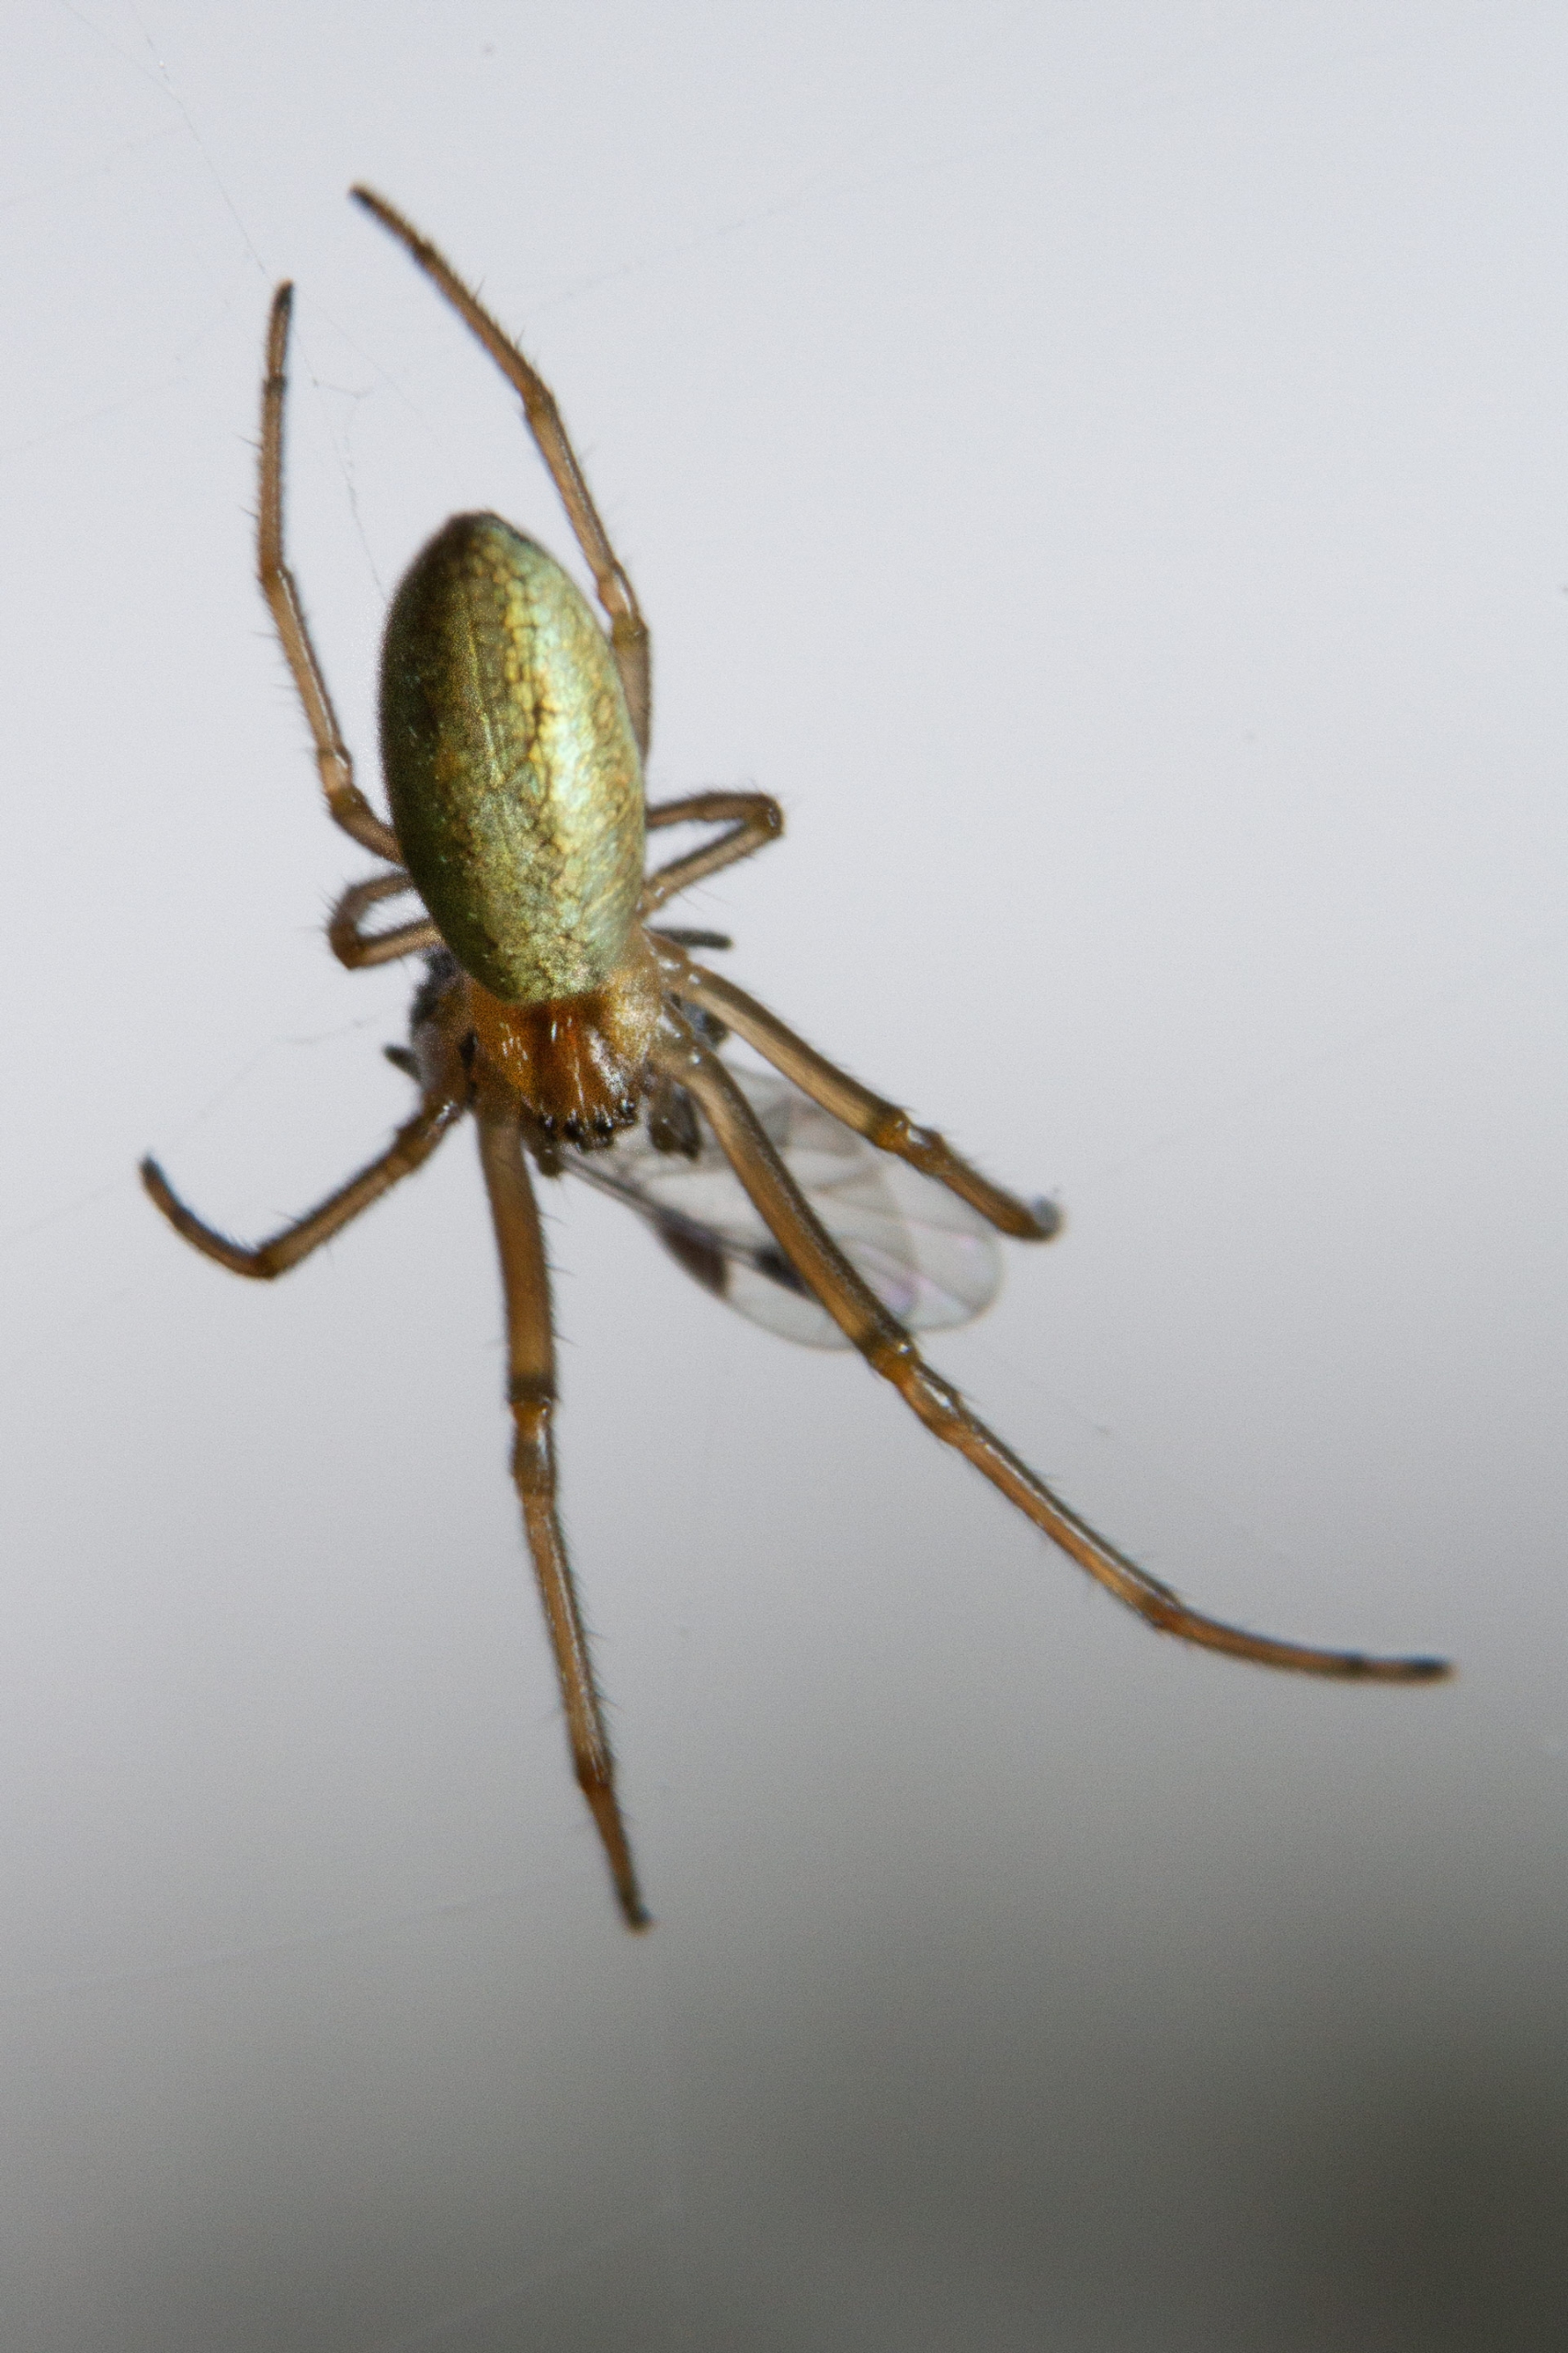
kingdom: Animalia
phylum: Arthropoda
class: Arachnida
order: Araneae
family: Tetragnathidae
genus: Tetragnatha
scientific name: Tetragnatha extensa
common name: Engstavedderkop
